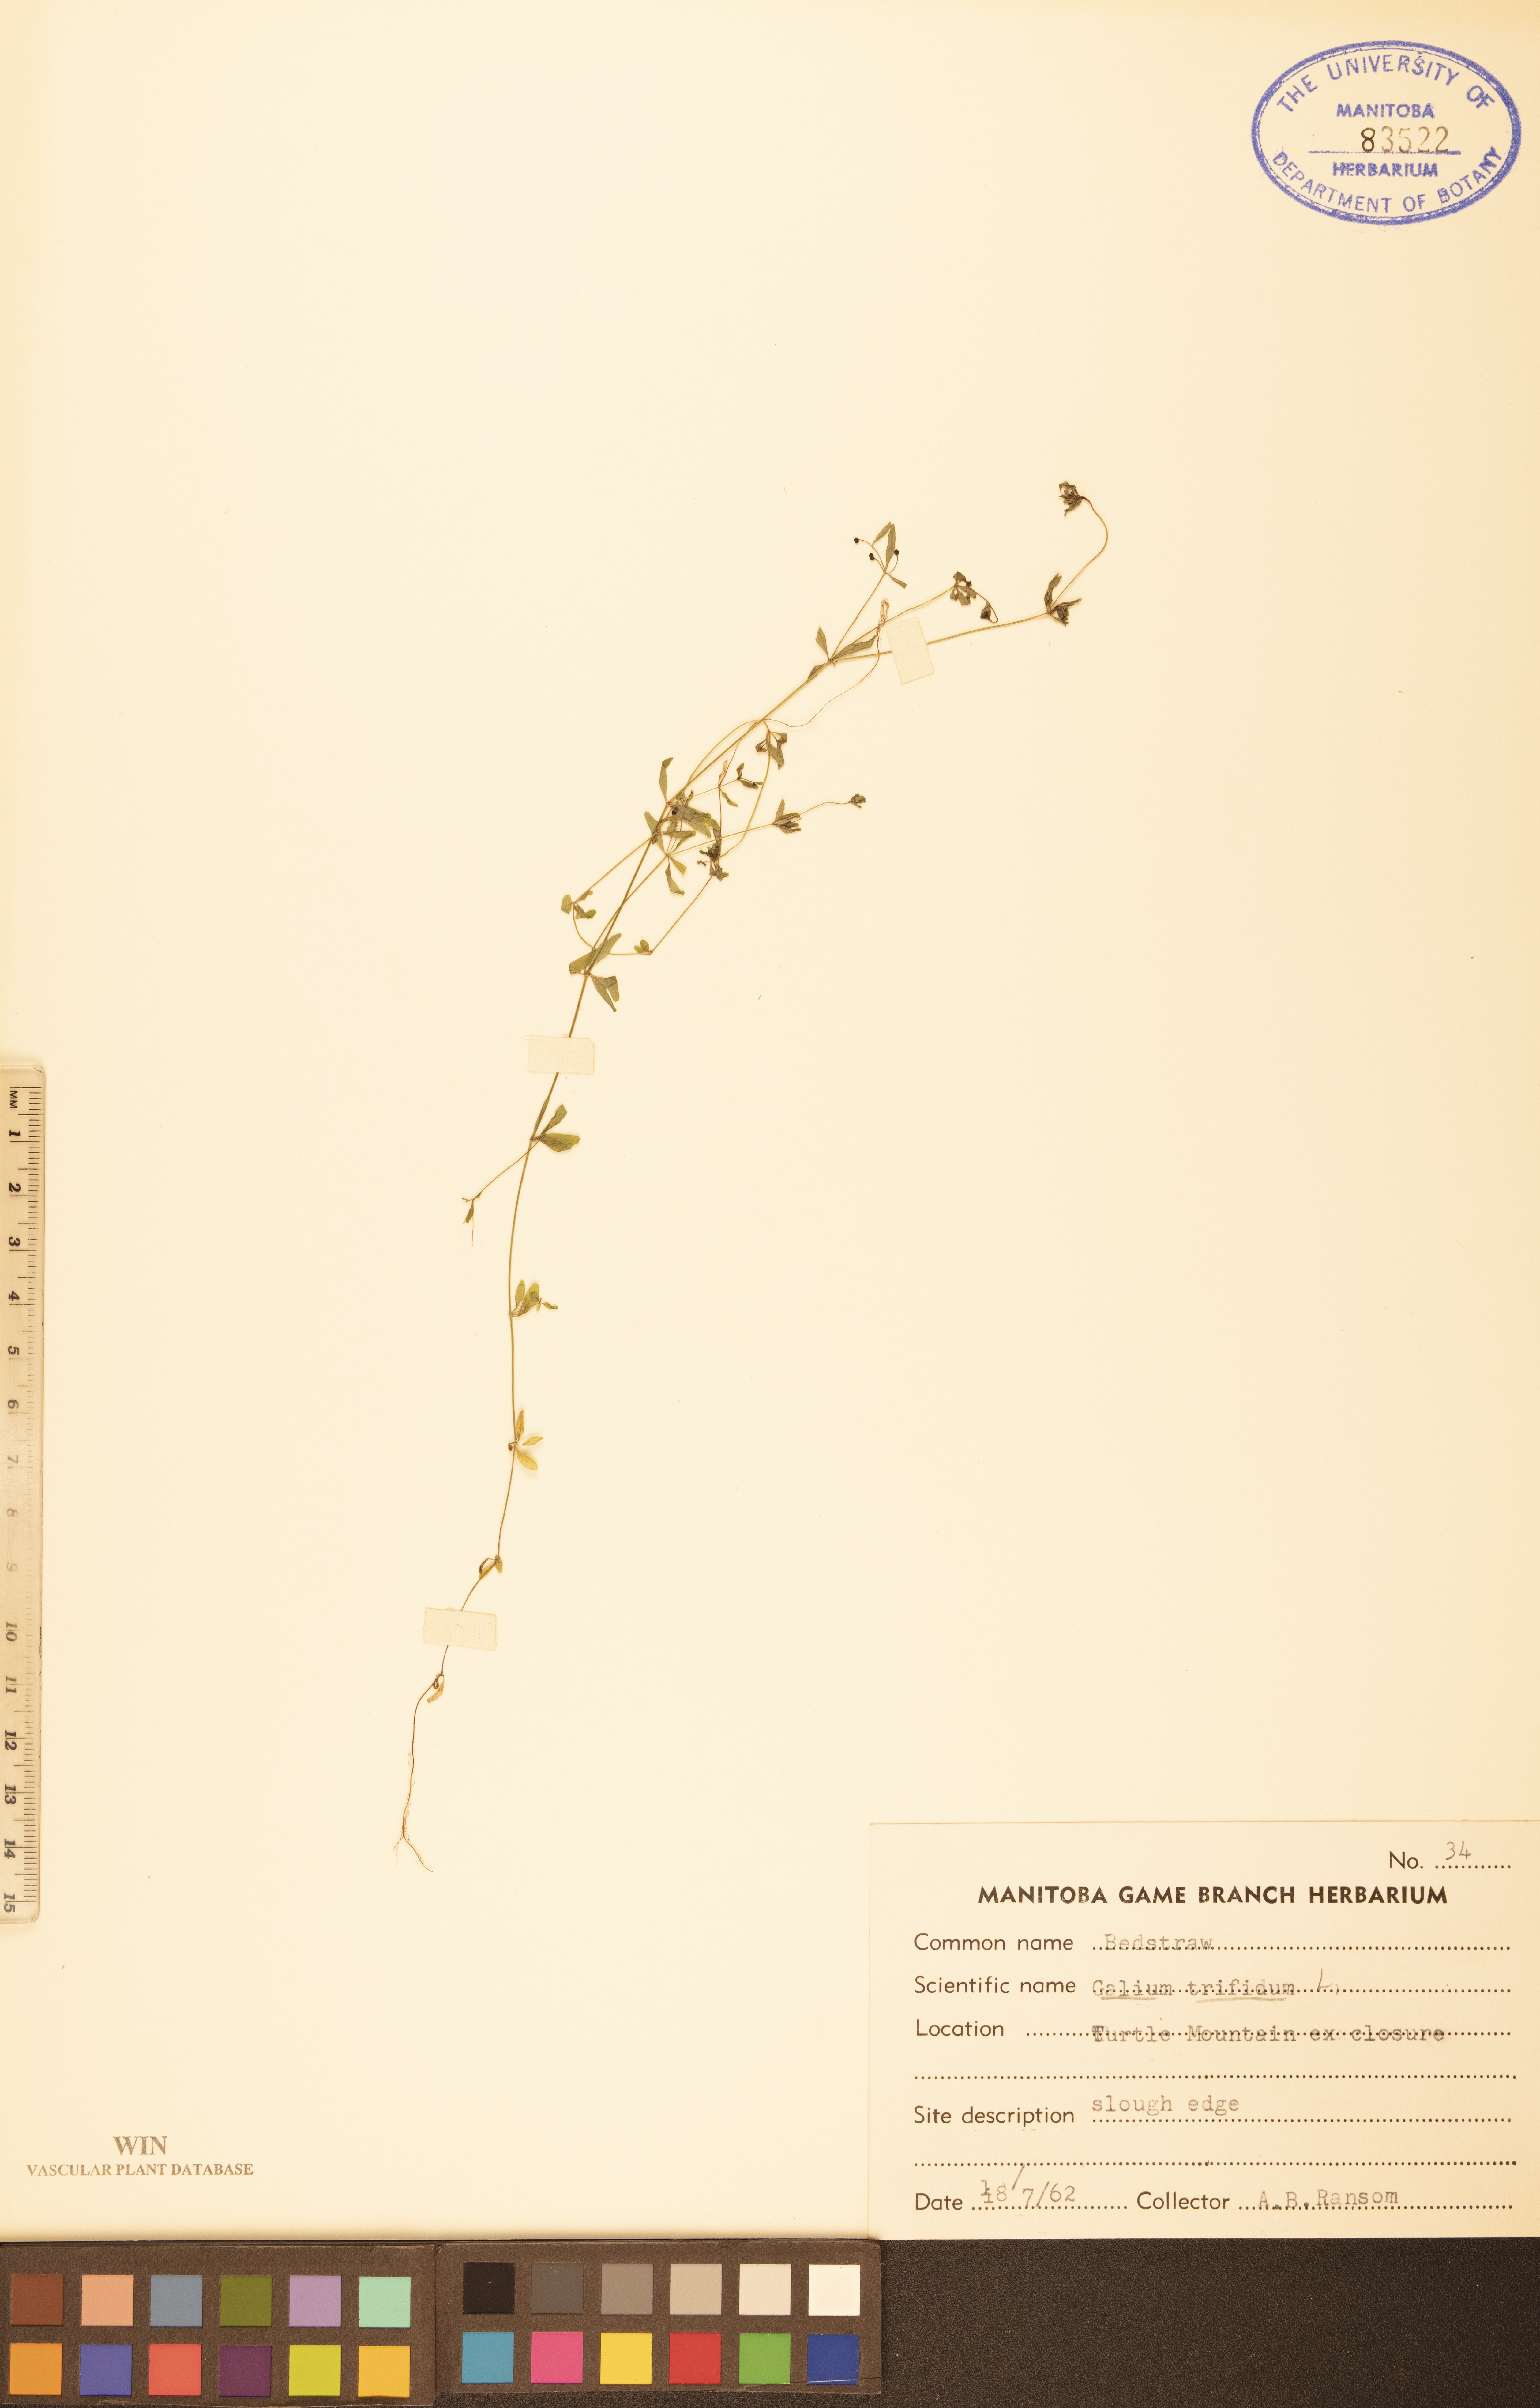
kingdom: Plantae
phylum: Tracheophyta
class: Magnoliopsida
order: Gentianales
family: Rubiaceae
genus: Galium
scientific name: Galium trifidum
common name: Small bedstraw
